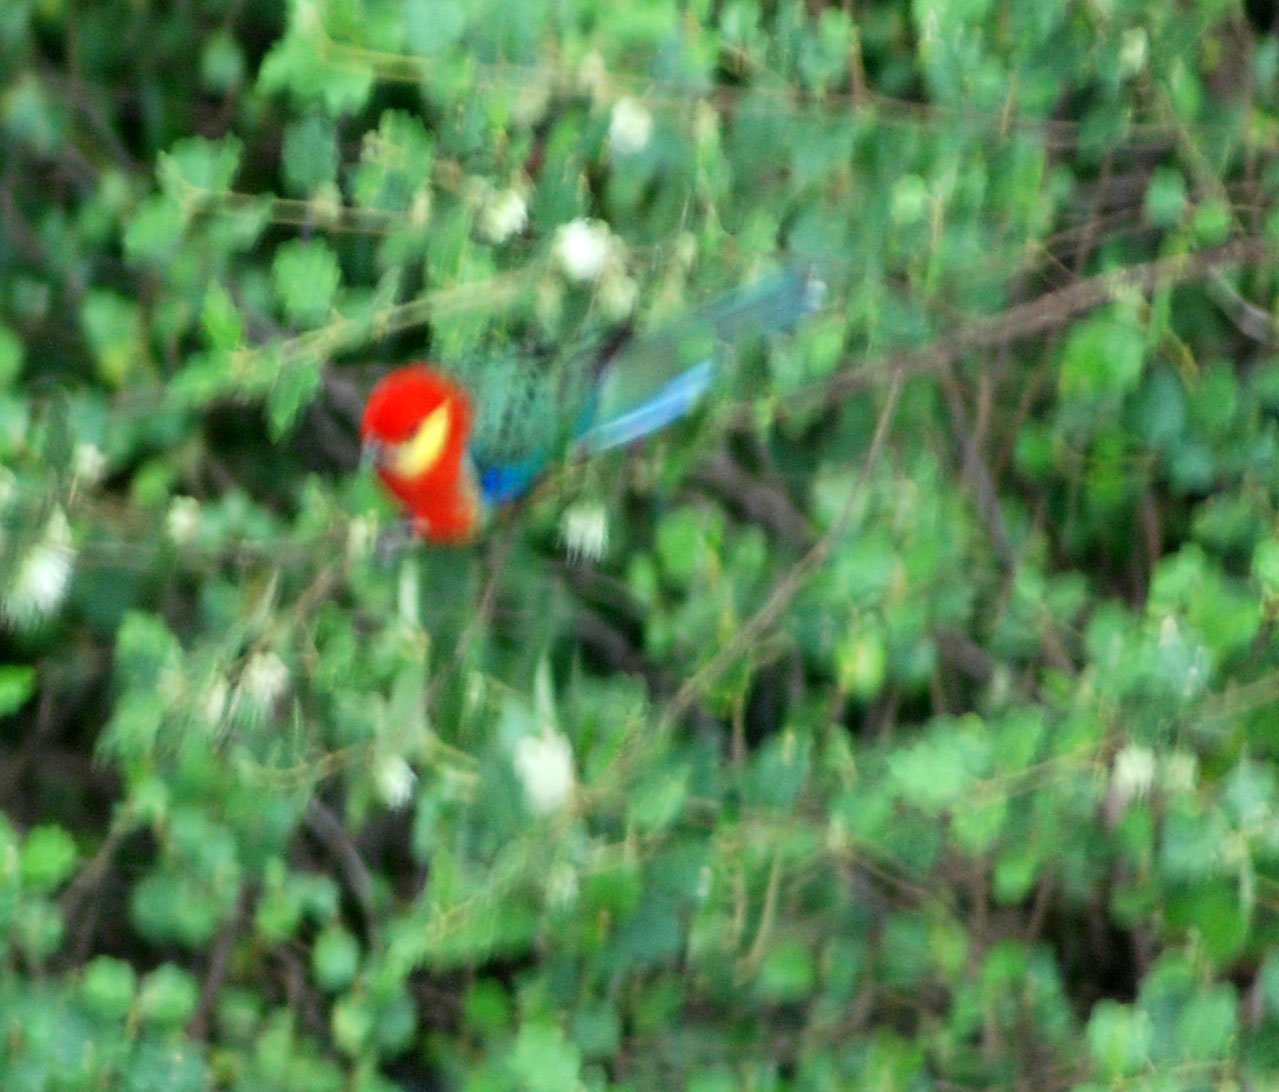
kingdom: Animalia
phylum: Chordata
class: Aves
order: Psittaciformes
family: Psittacidae
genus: Platycercus
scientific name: Platycercus icterotis
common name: Western rosella
